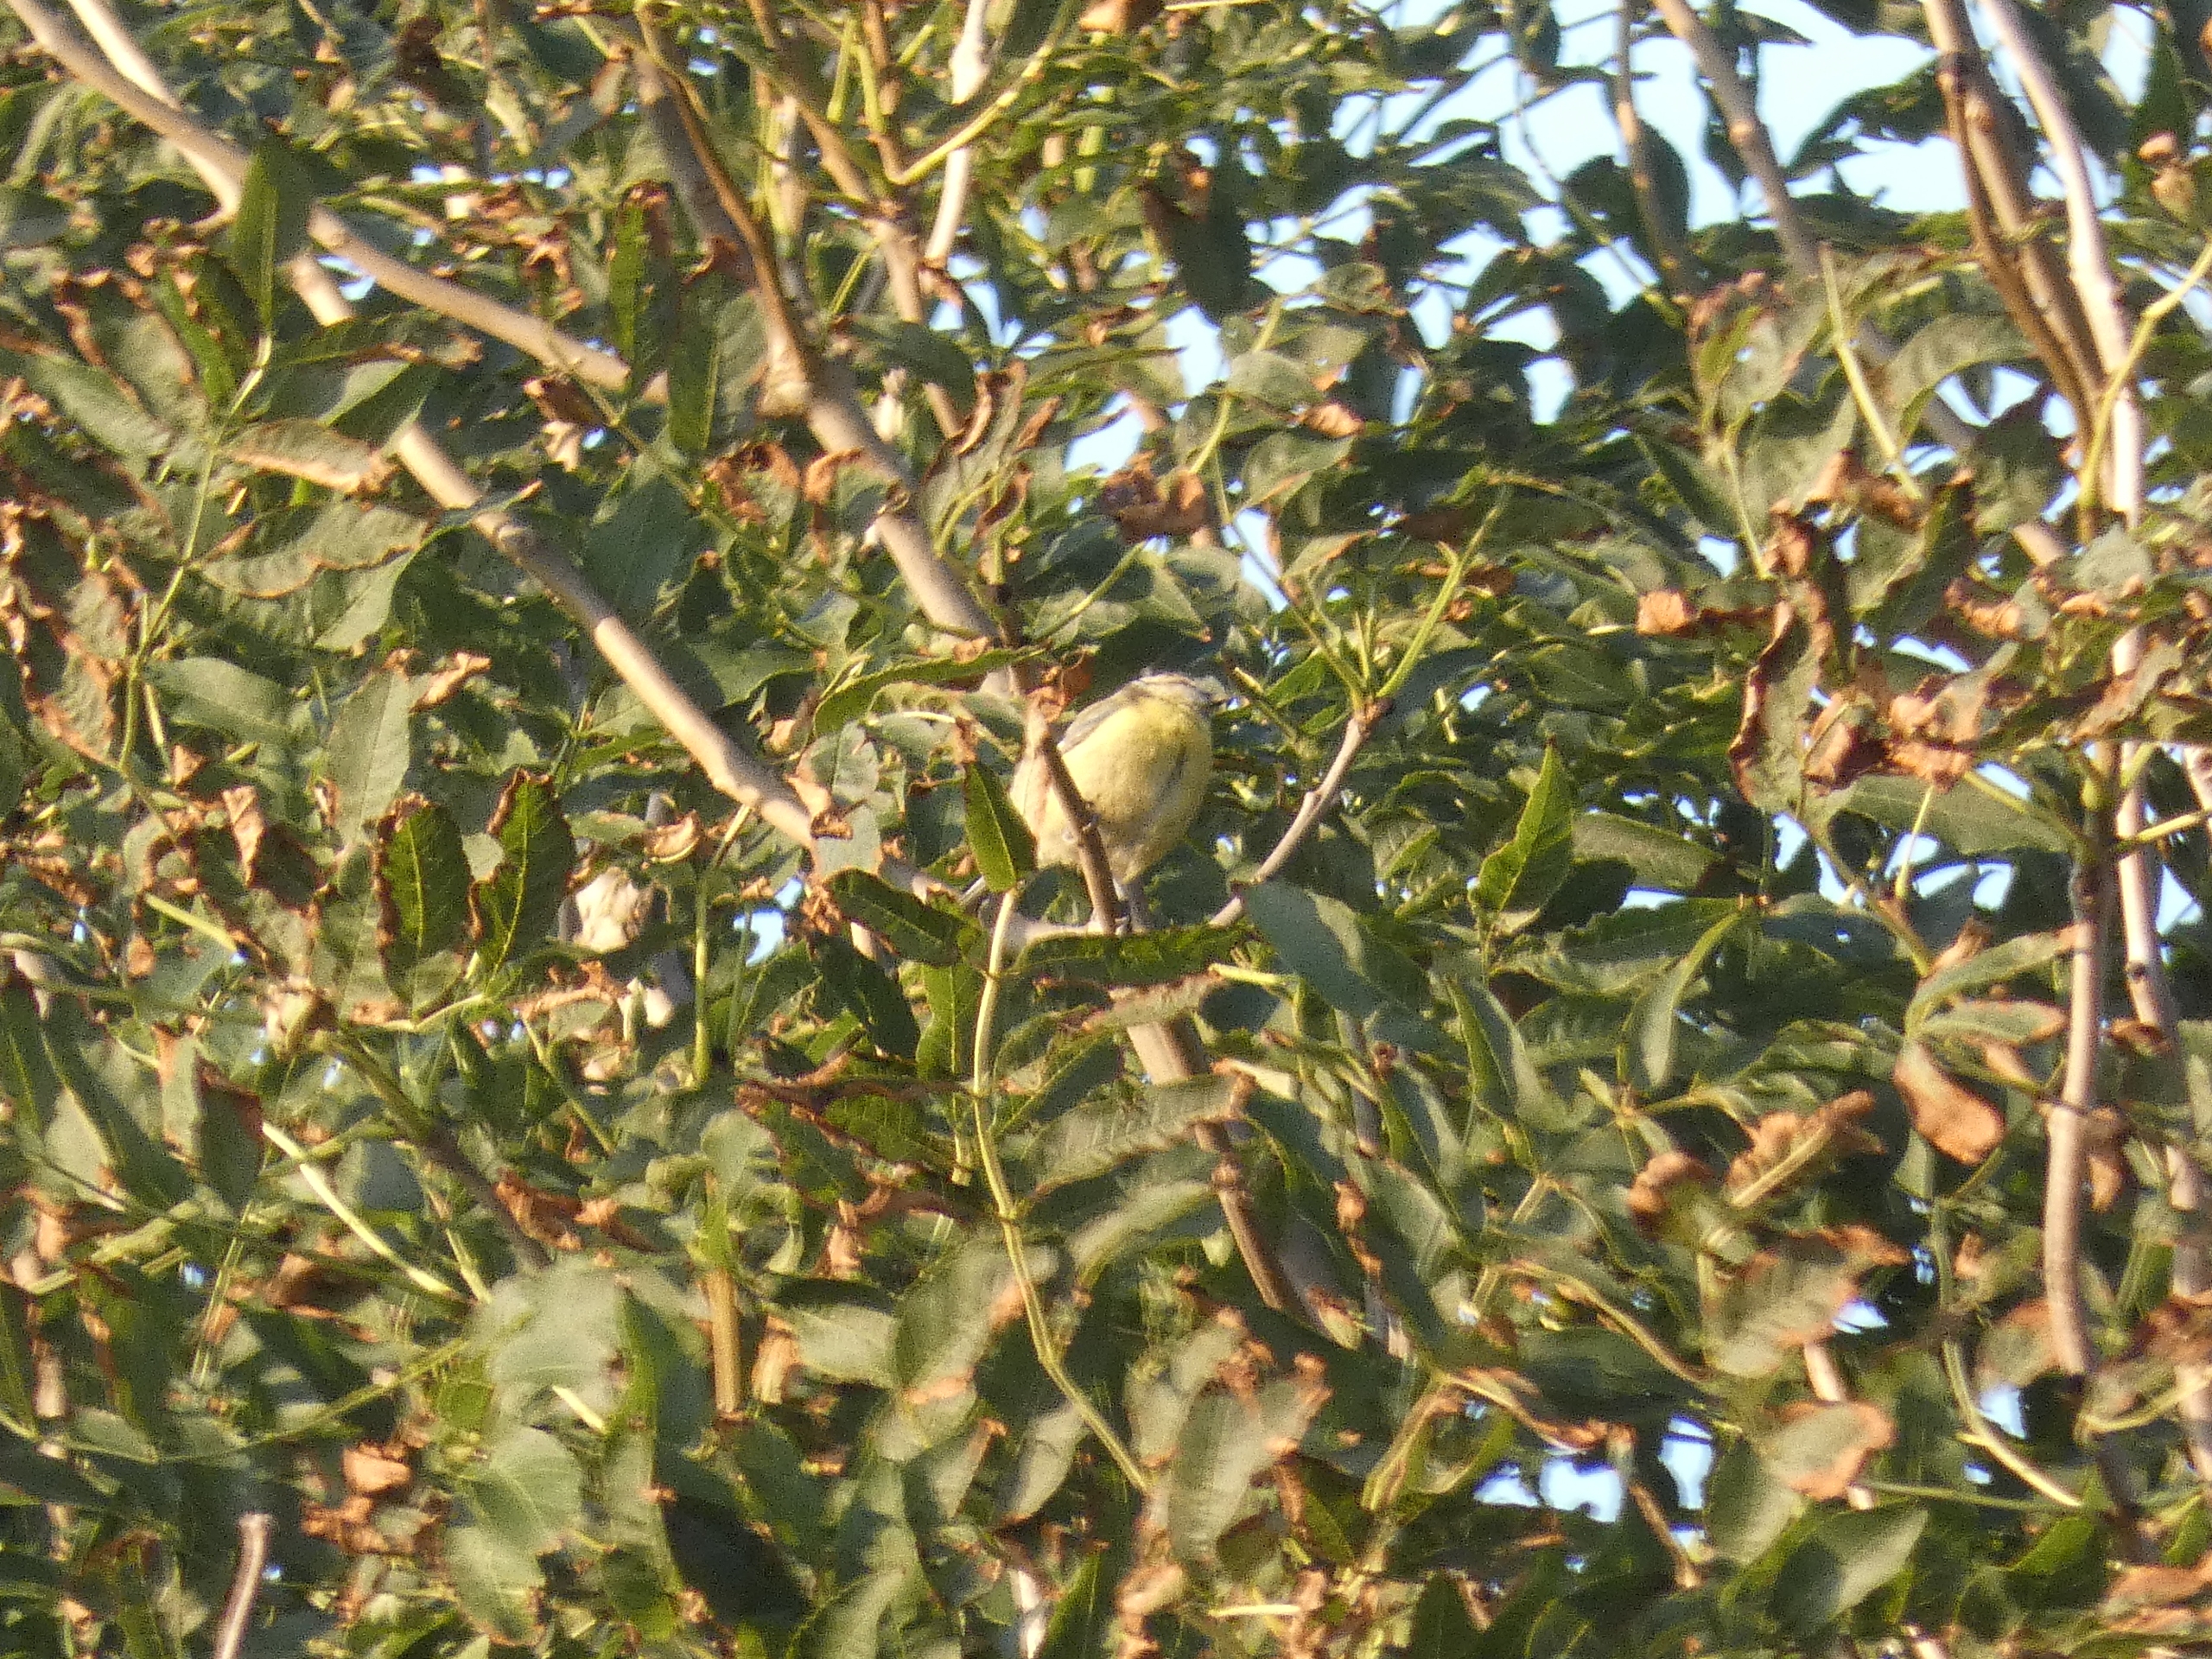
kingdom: Animalia
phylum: Chordata
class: Aves
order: Passeriformes
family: Paridae
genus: Cyanistes
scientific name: Cyanistes caeruleus
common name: Blåmejse
